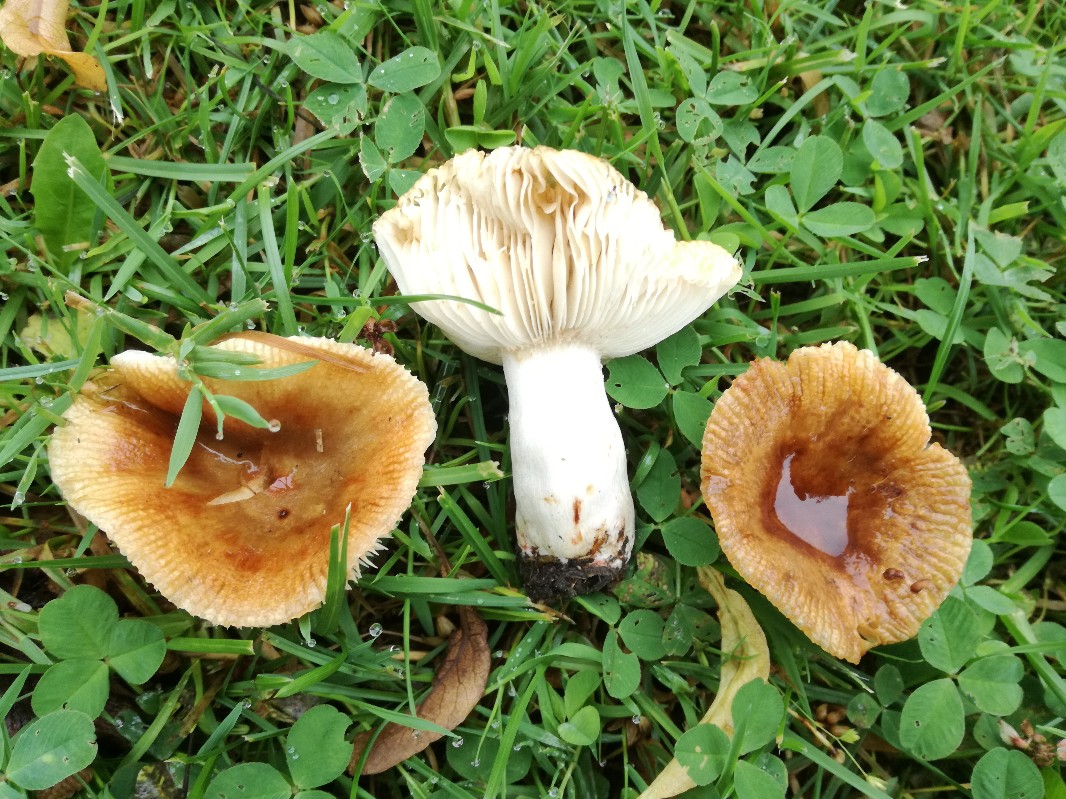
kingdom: Fungi
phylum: Basidiomycota
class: Agaricomycetes
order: Russulales
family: Russulaceae
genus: Russula
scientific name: Russula recondita
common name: mild kam-skørhat
